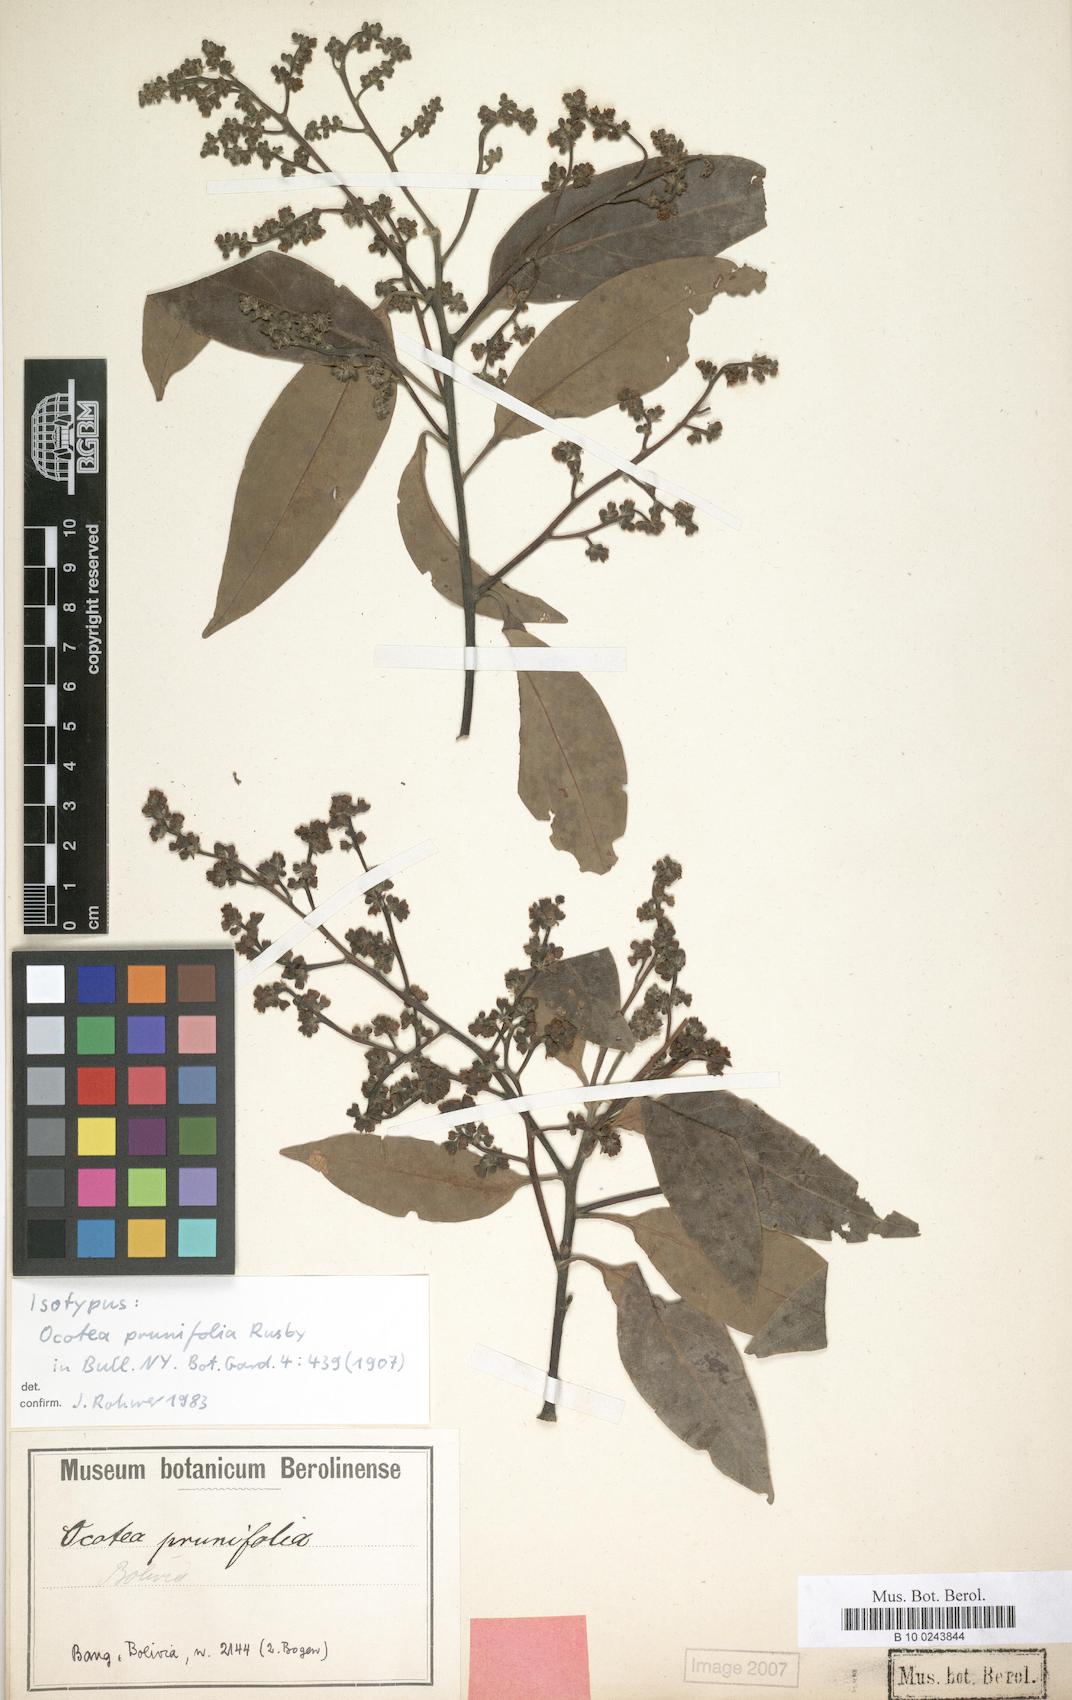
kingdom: Plantae
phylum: Tracheophyta
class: Magnoliopsida
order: Laurales
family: Lauraceae
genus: Ocotea
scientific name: Ocotea prunifolia
